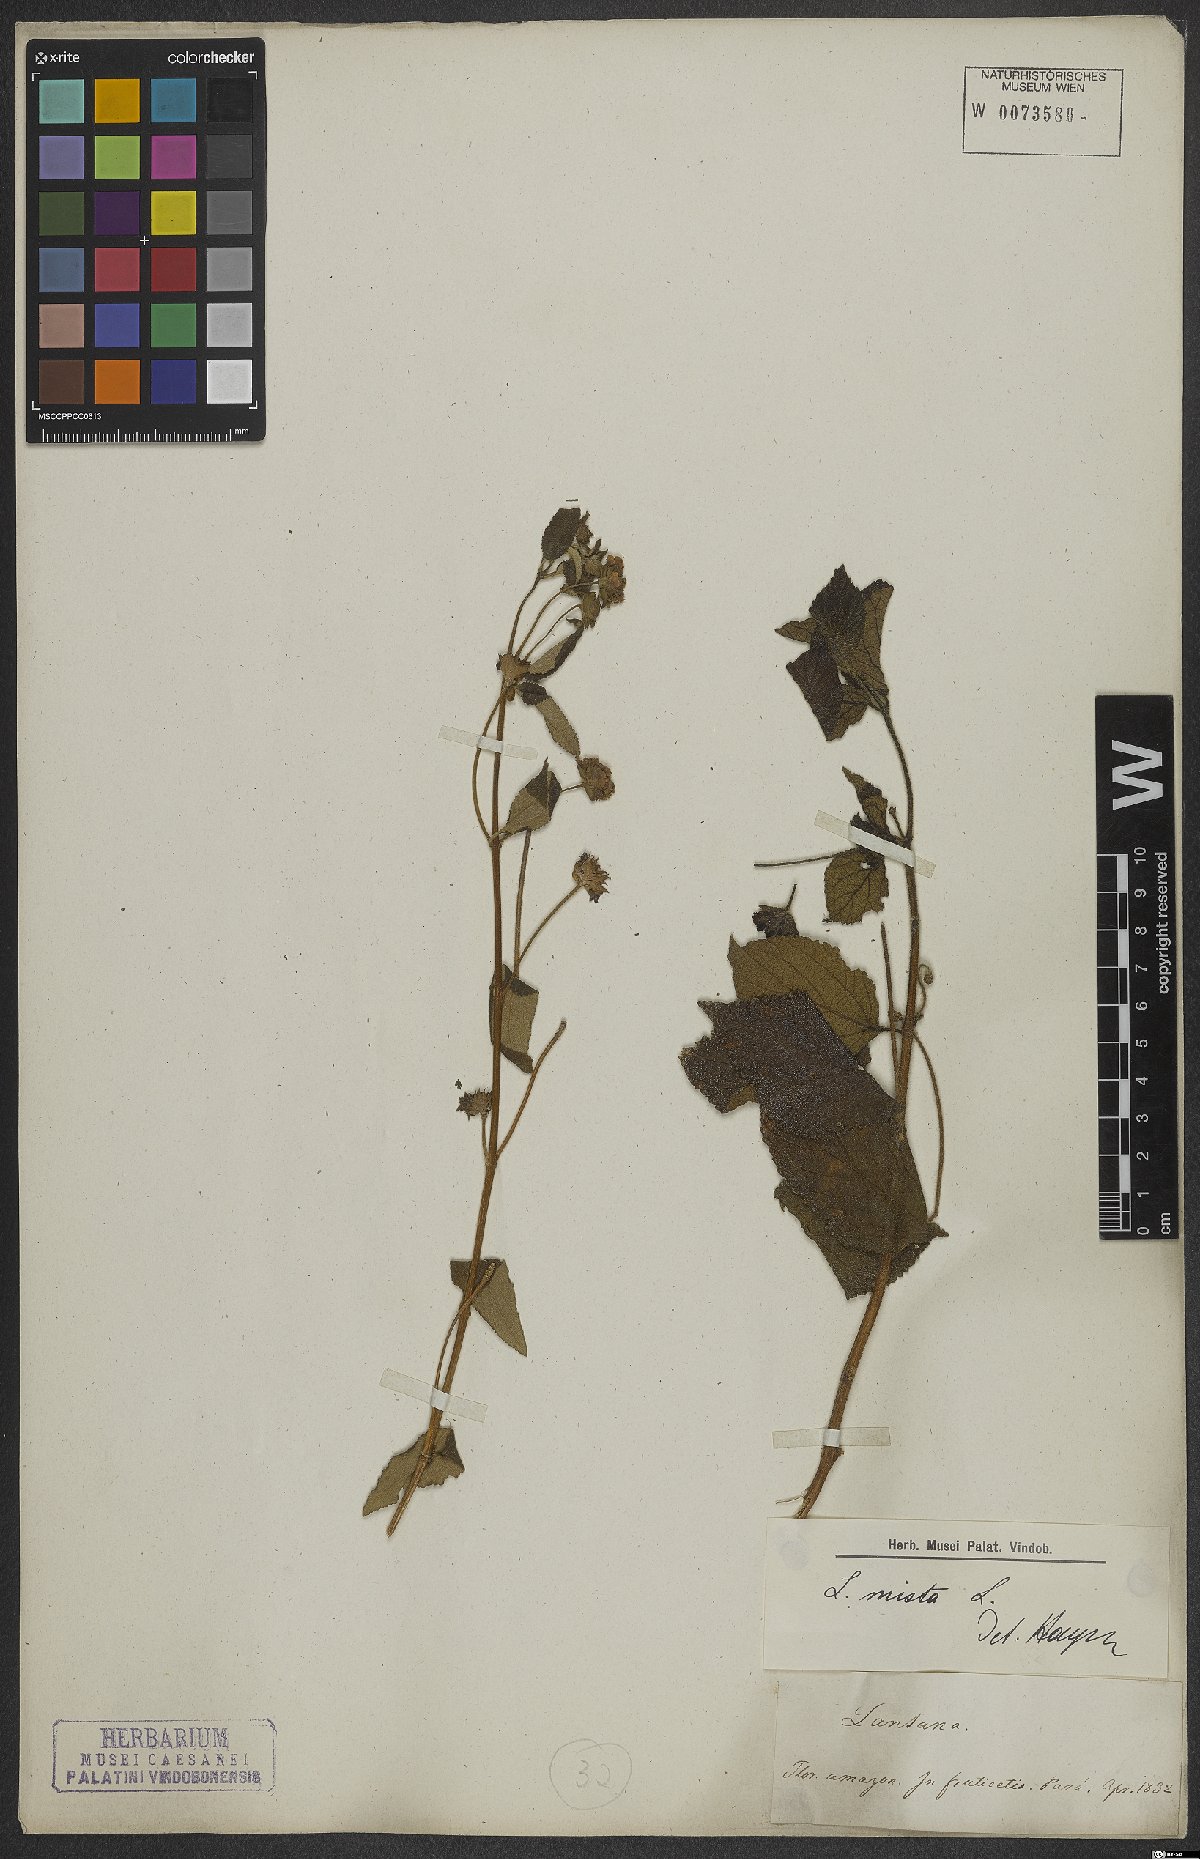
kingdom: Plantae
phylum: Tracheophyta
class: Magnoliopsida
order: Lamiales
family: Verbenaceae
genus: Lantana
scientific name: Lantana mista
